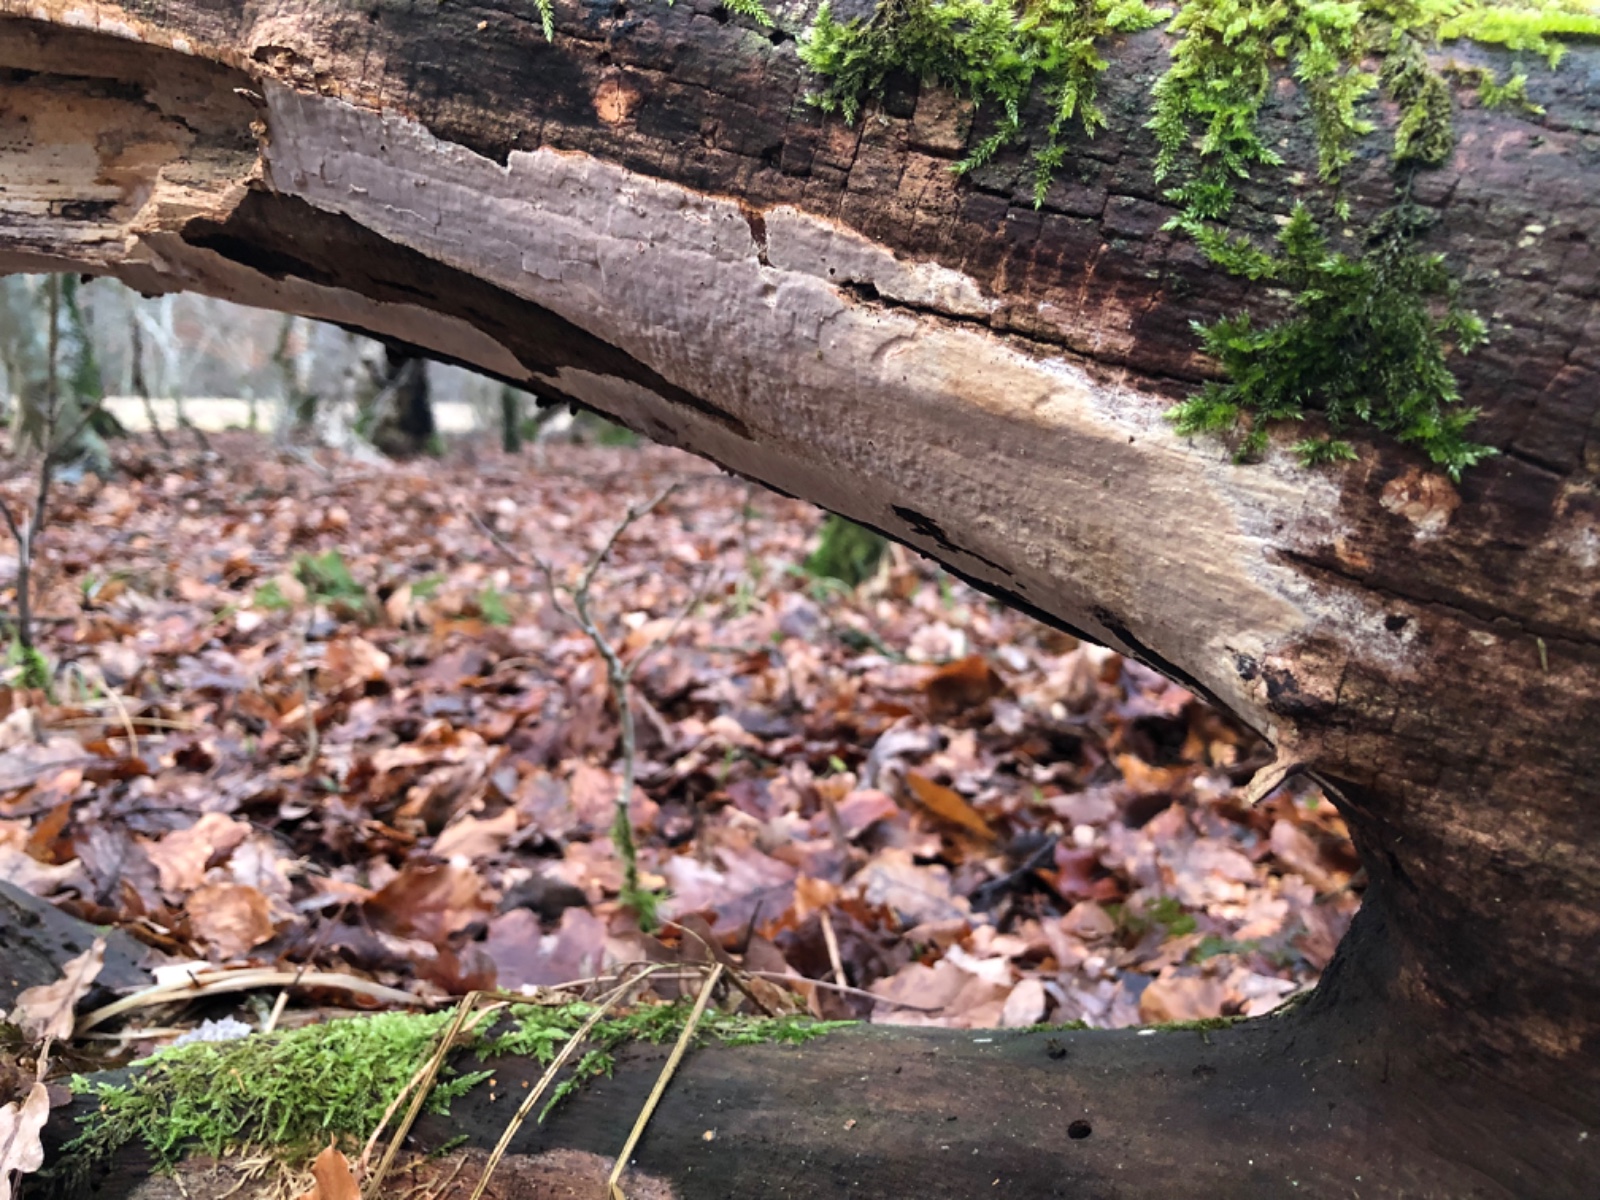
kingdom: Fungi
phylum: Basidiomycota
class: Agaricomycetes
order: Russulales
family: Peniophoraceae
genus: Scytinostroma
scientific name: Scytinostroma hemidichophyticum
